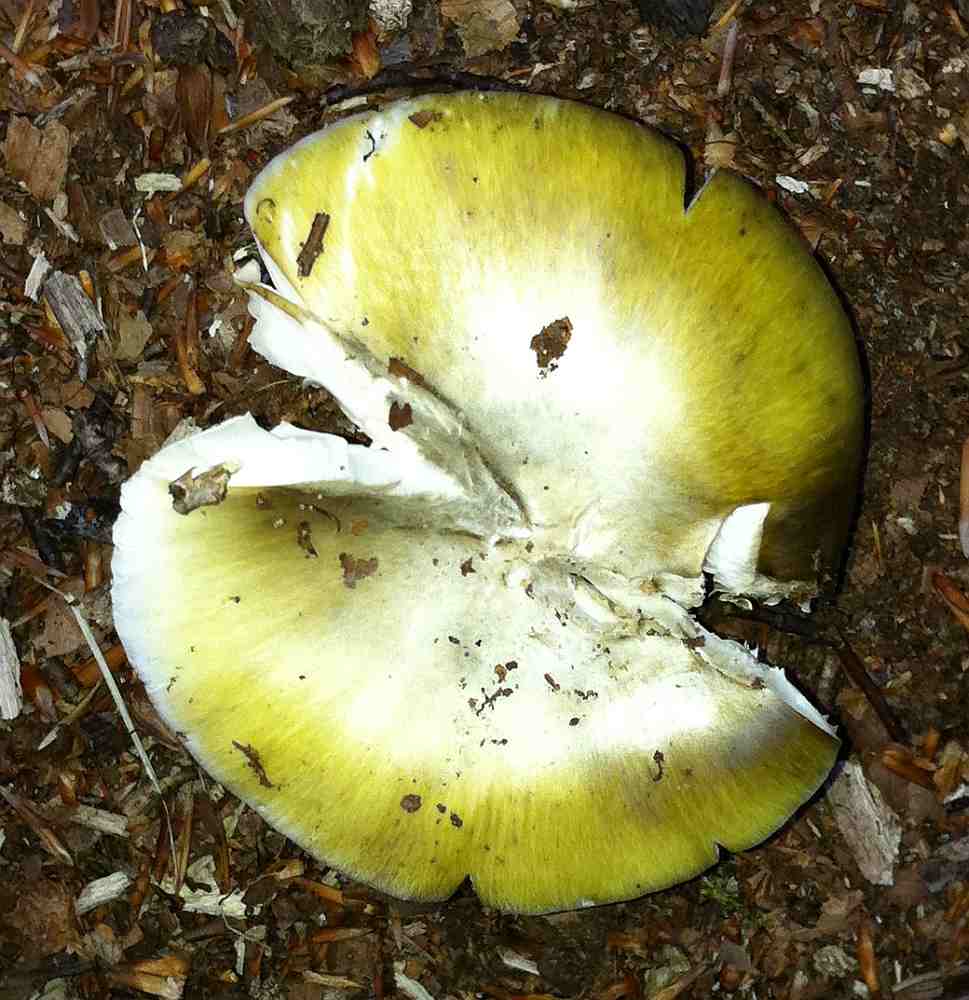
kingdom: Fungi
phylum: Basidiomycota
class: Agaricomycetes
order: Agaricales
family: Amanitaceae
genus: Amanita
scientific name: Amanita phalloides
